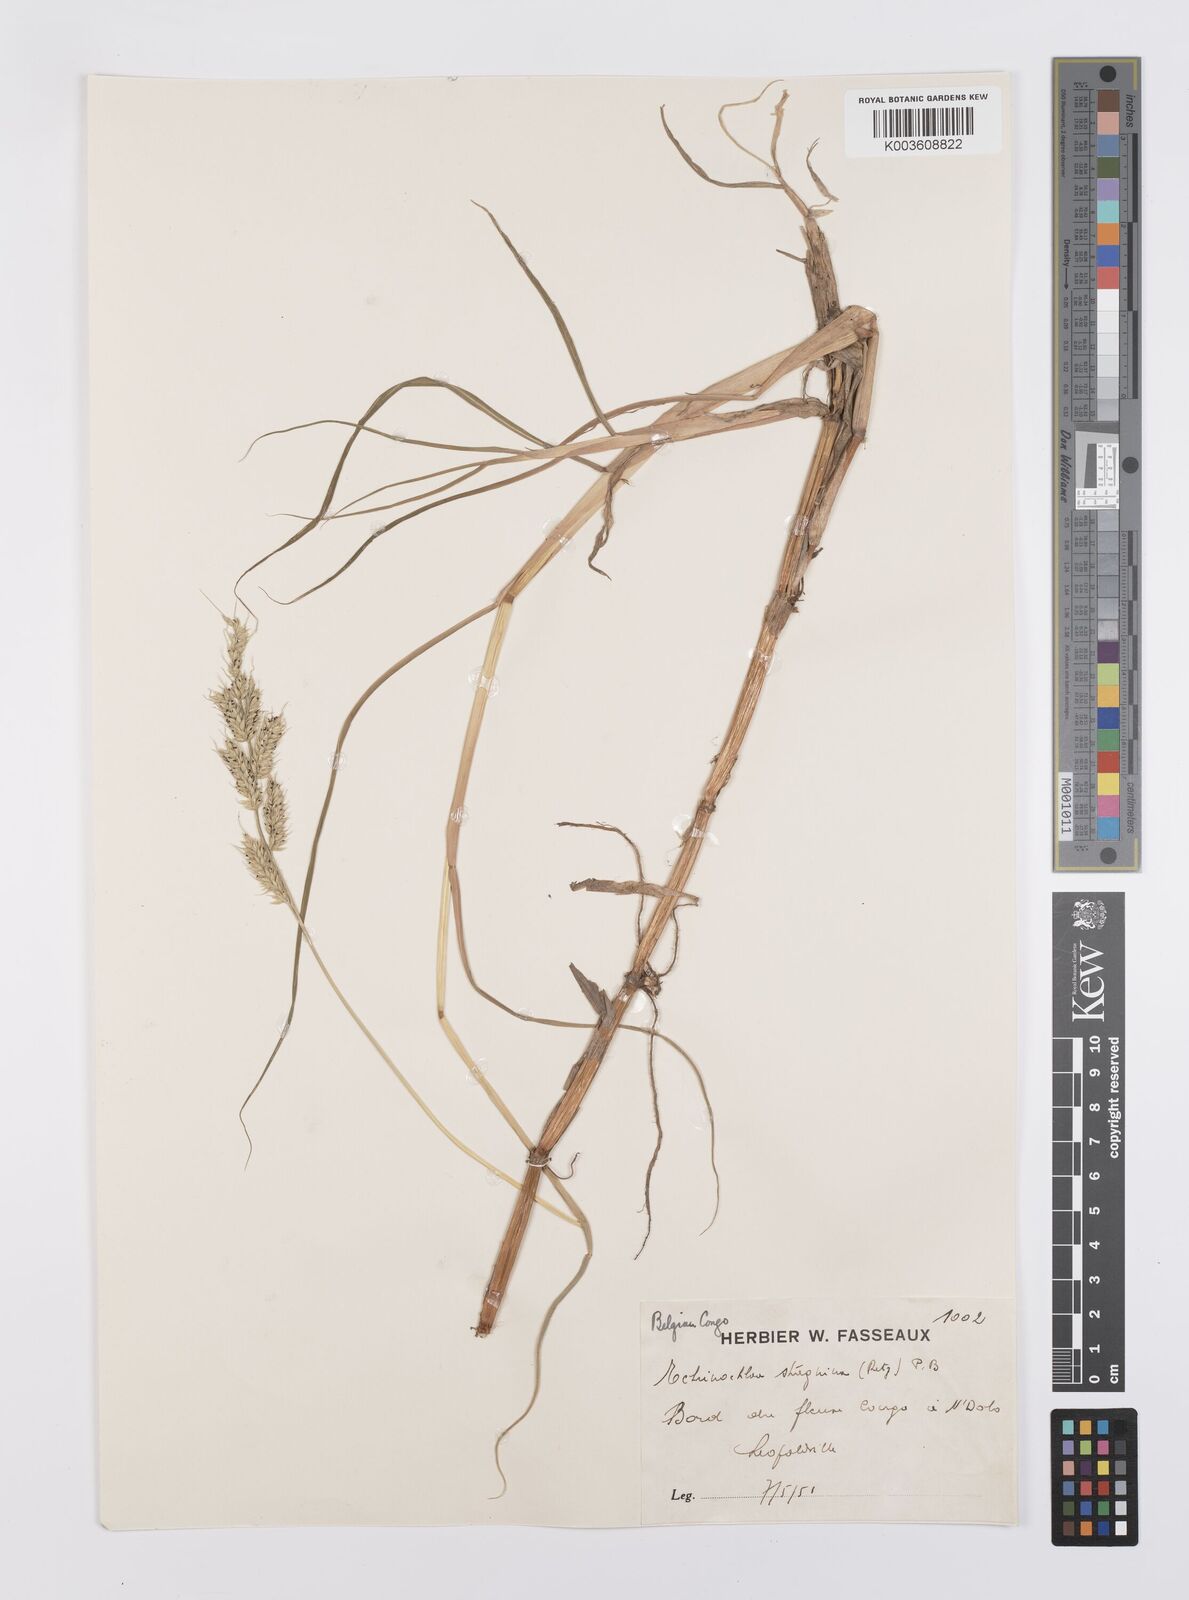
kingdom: Plantae
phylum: Tracheophyta
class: Liliopsida
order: Poales
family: Poaceae
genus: Echinochloa
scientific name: Echinochloa jubata
